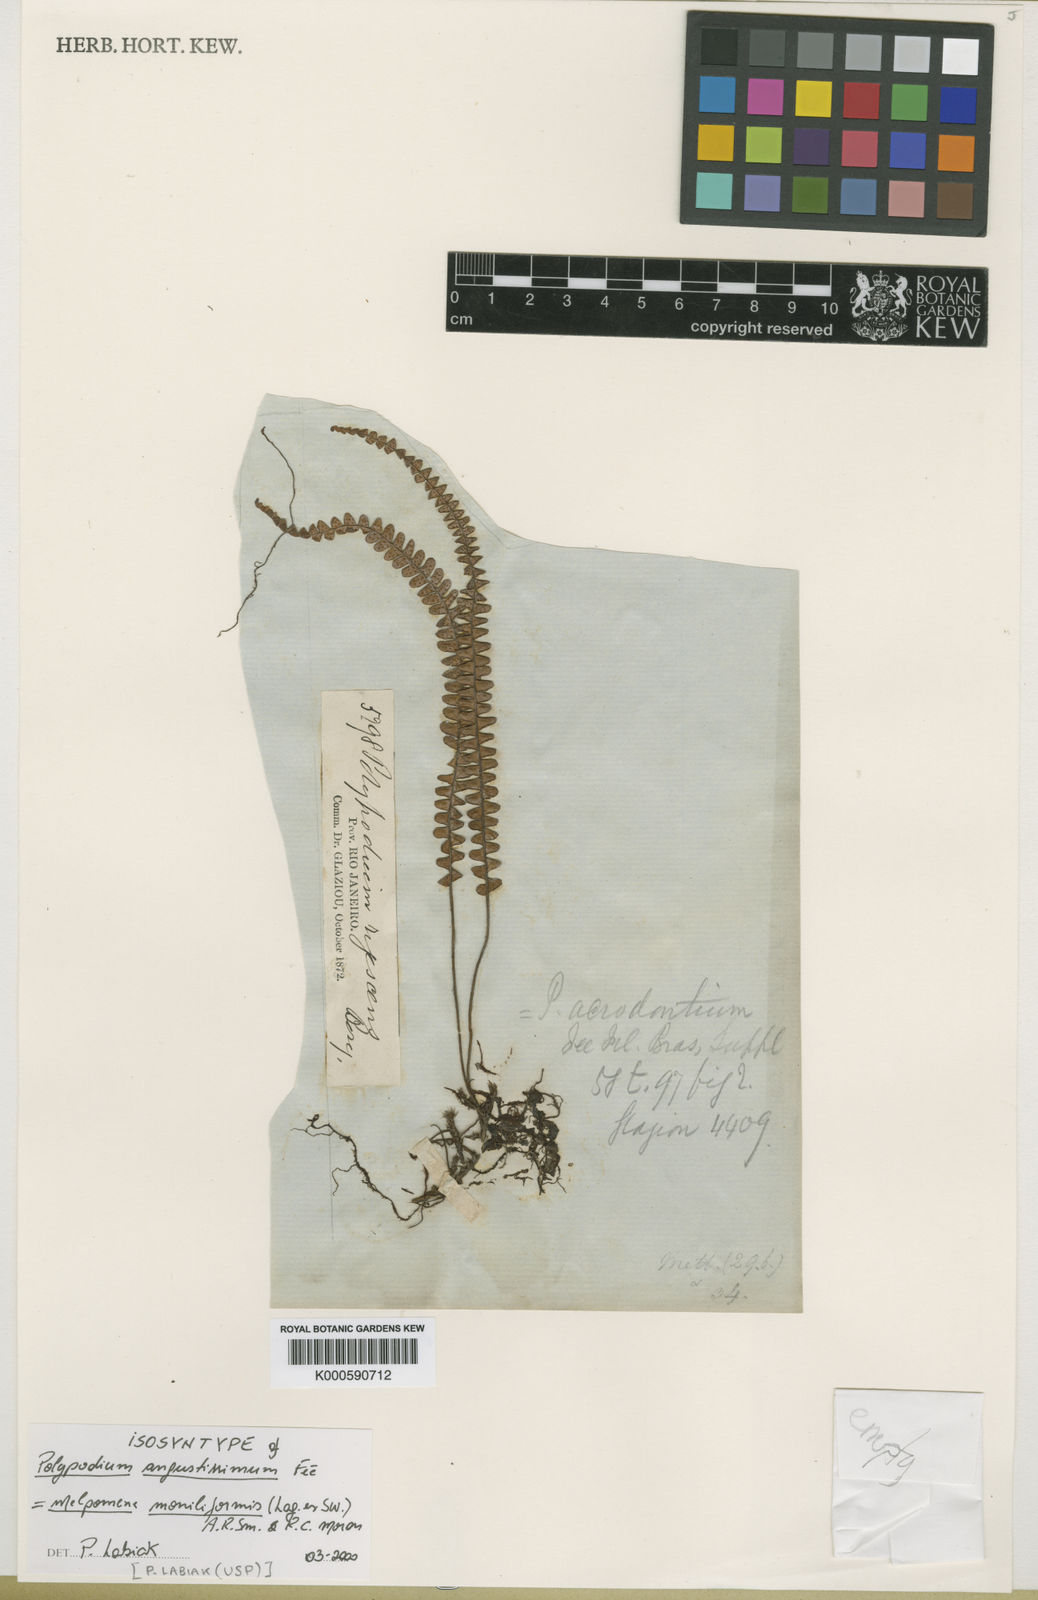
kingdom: Plantae
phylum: Tracheophyta
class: Polypodiopsida
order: Polypodiales
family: Polypodiaceae
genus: Melpomene
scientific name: Melpomene moniliformis
